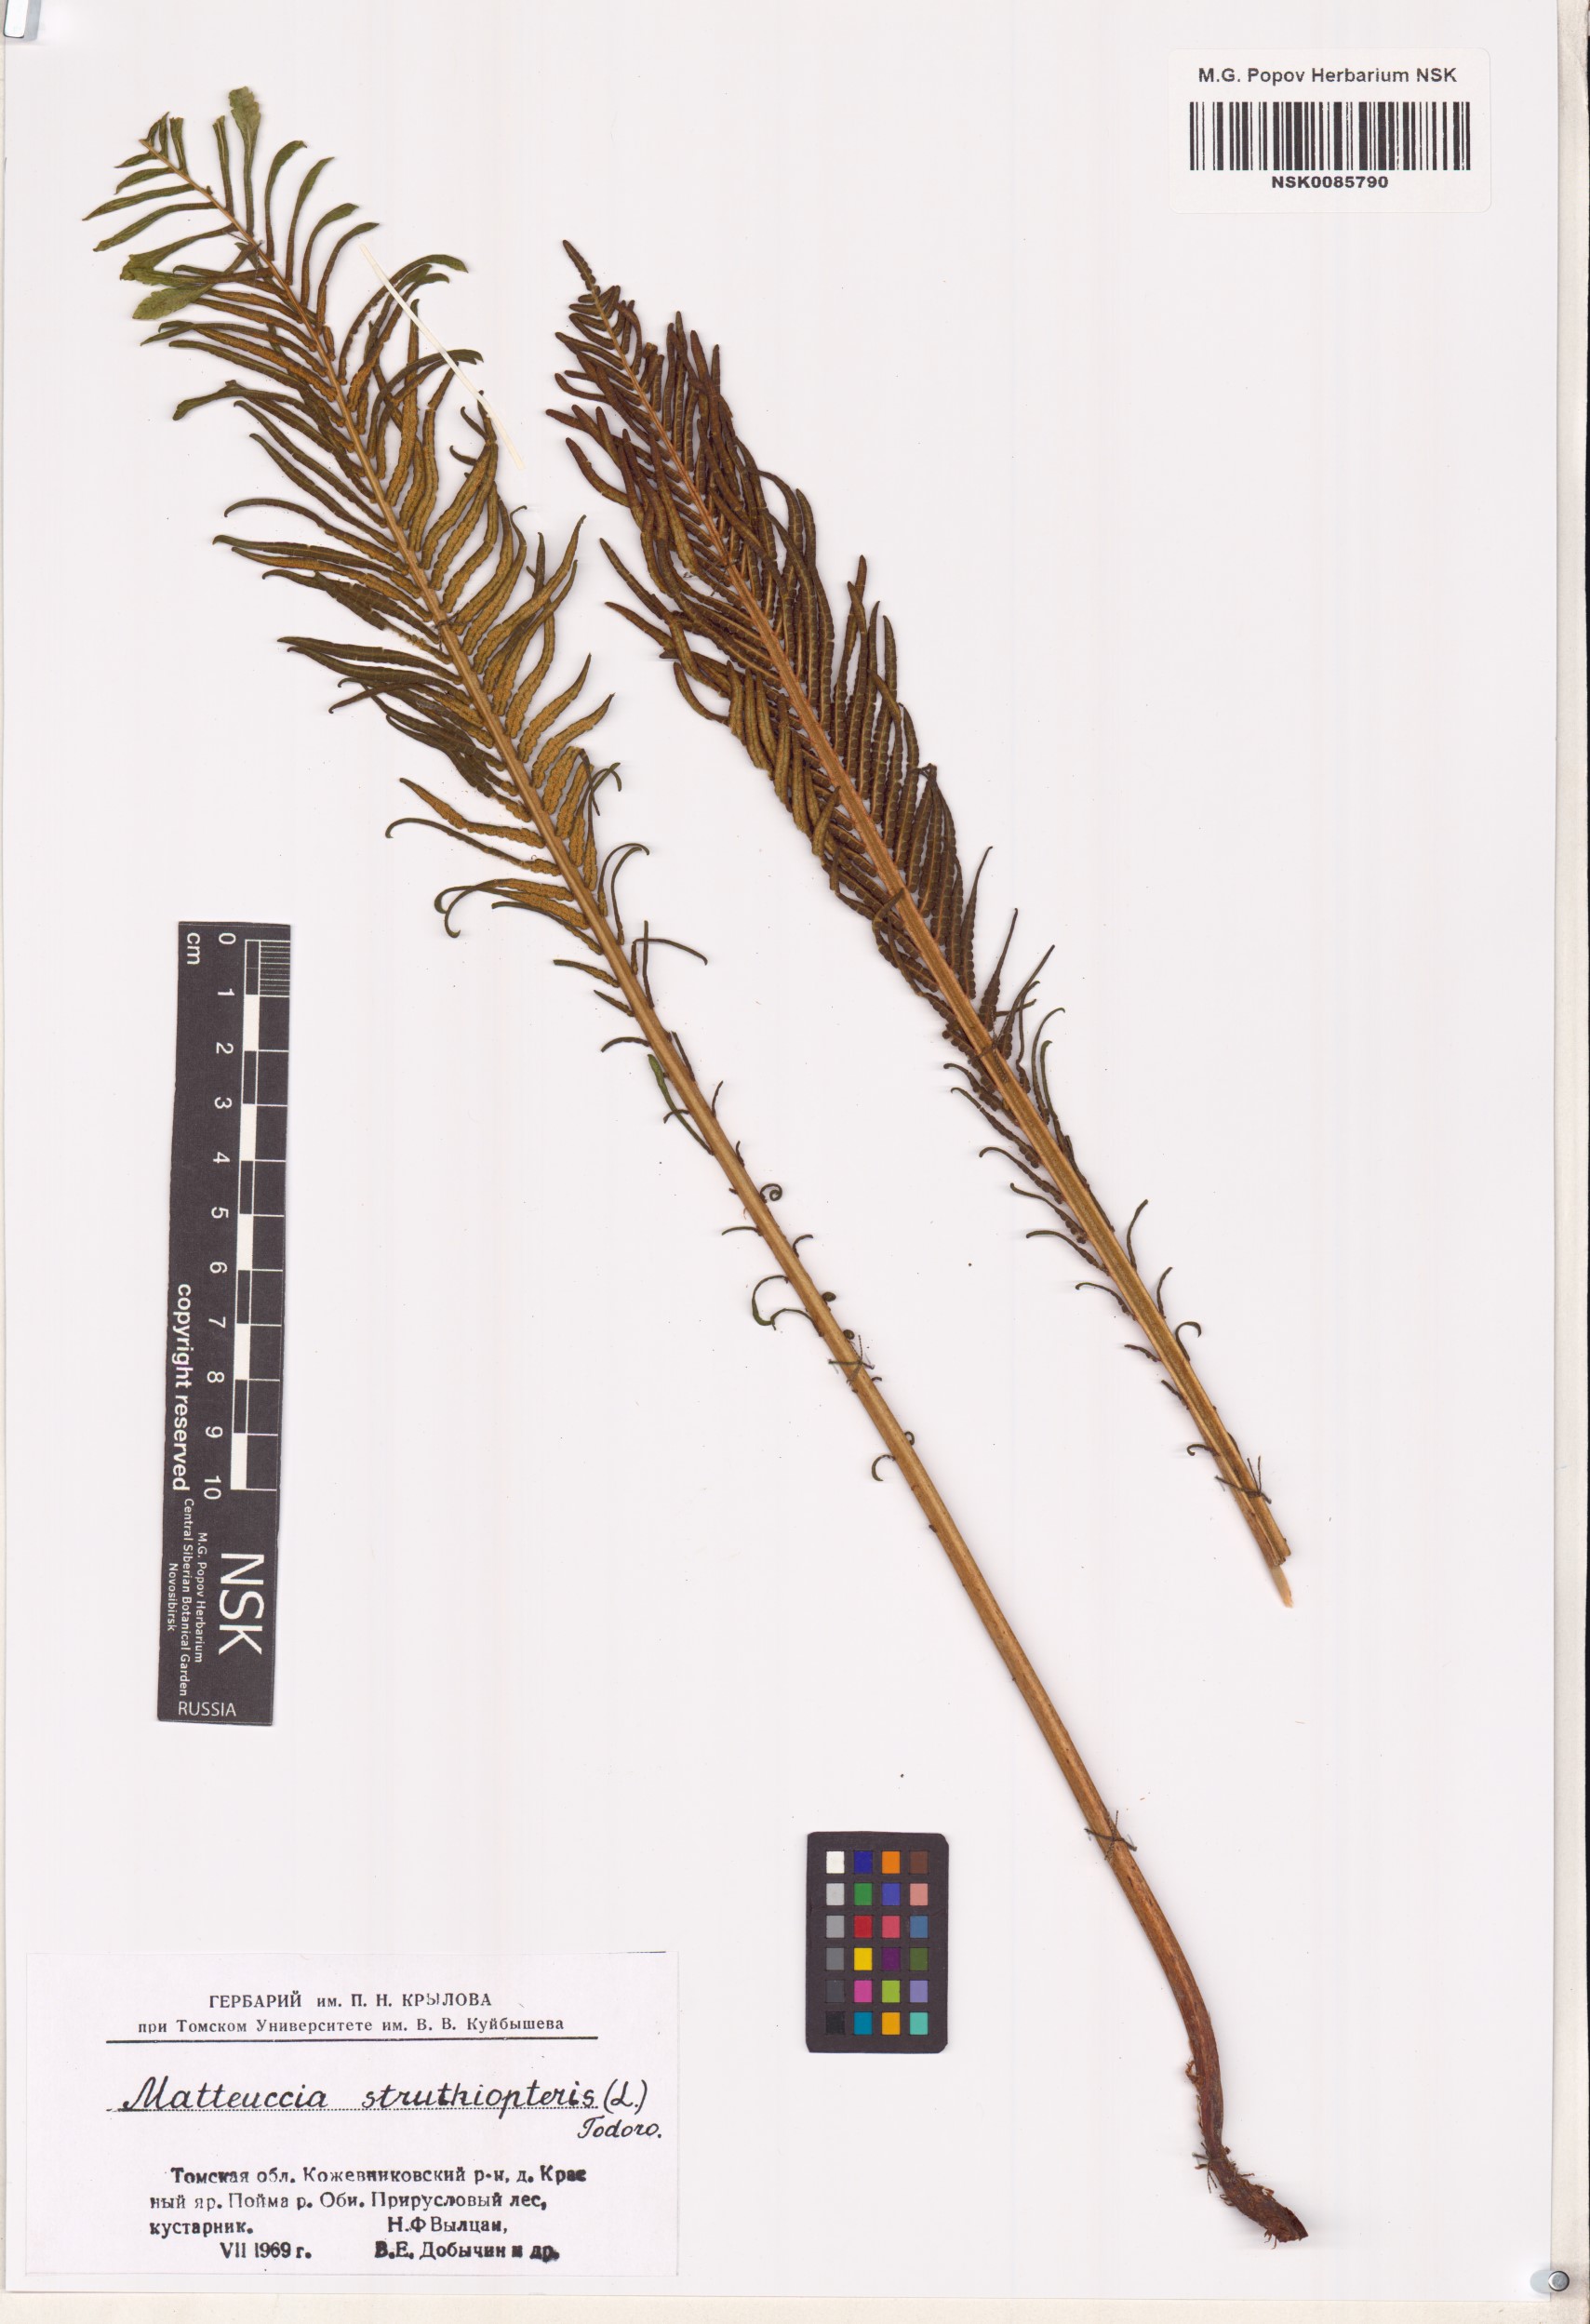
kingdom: Plantae
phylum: Tracheophyta
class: Polypodiopsida
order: Polypodiales
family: Onocleaceae
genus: Matteuccia
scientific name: Matteuccia struthiopteris
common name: Ostrich fern
